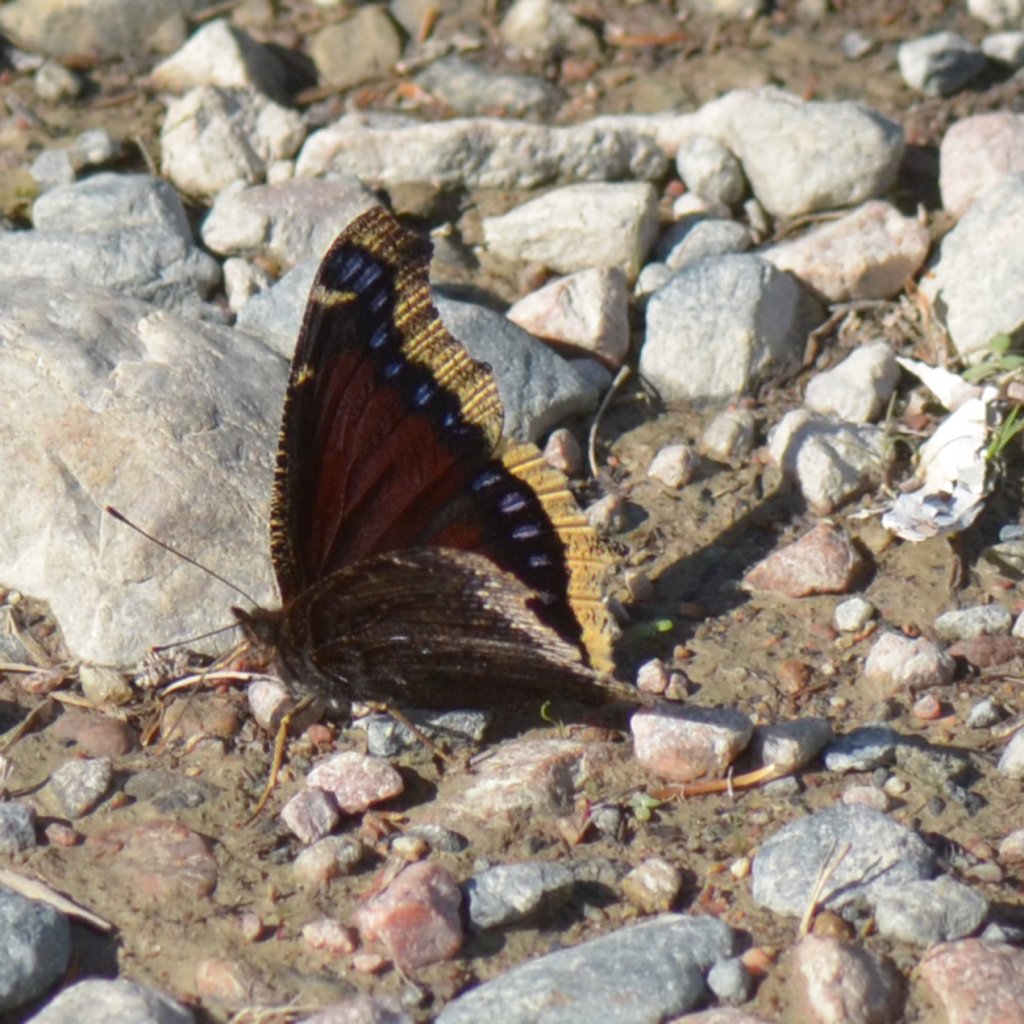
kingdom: Animalia
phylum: Arthropoda
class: Insecta
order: Lepidoptera
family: Nymphalidae
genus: Nymphalis
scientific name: Nymphalis antiopa
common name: Mourning Cloak
